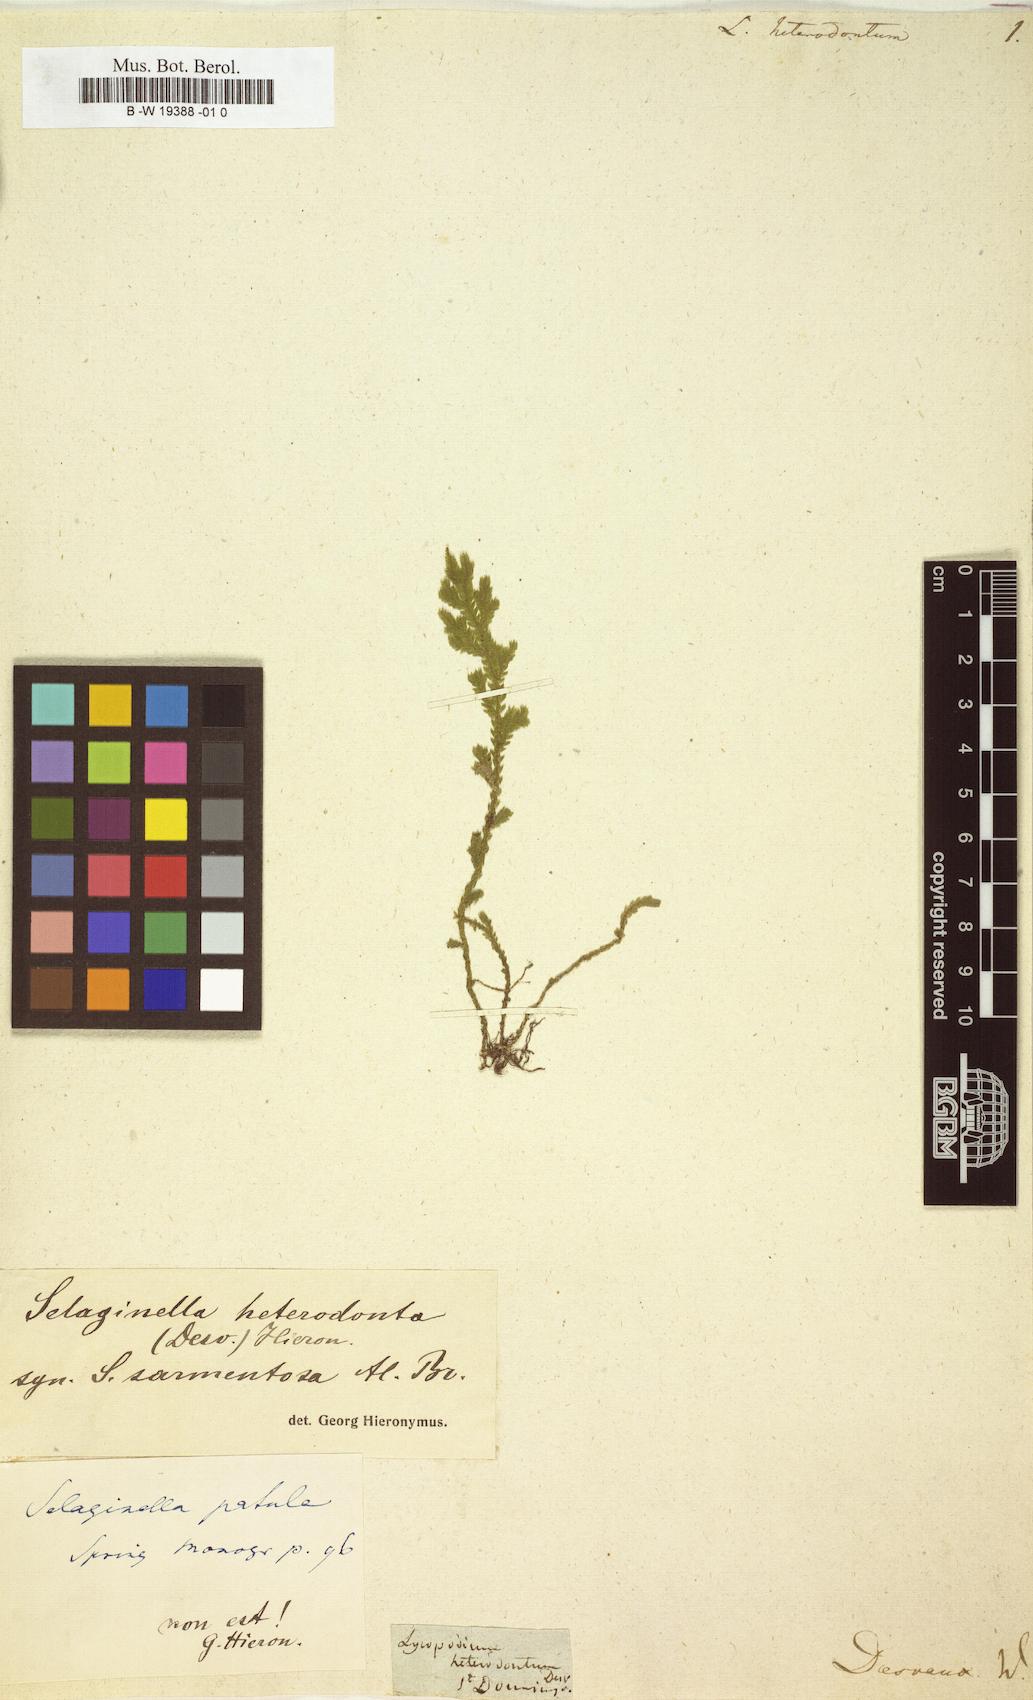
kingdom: Plantae
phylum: Tracheophyta
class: Lycopodiopsida
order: Selaginellales
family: Selaginellaceae
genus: Selaginella
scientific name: Selaginella heterodonta
